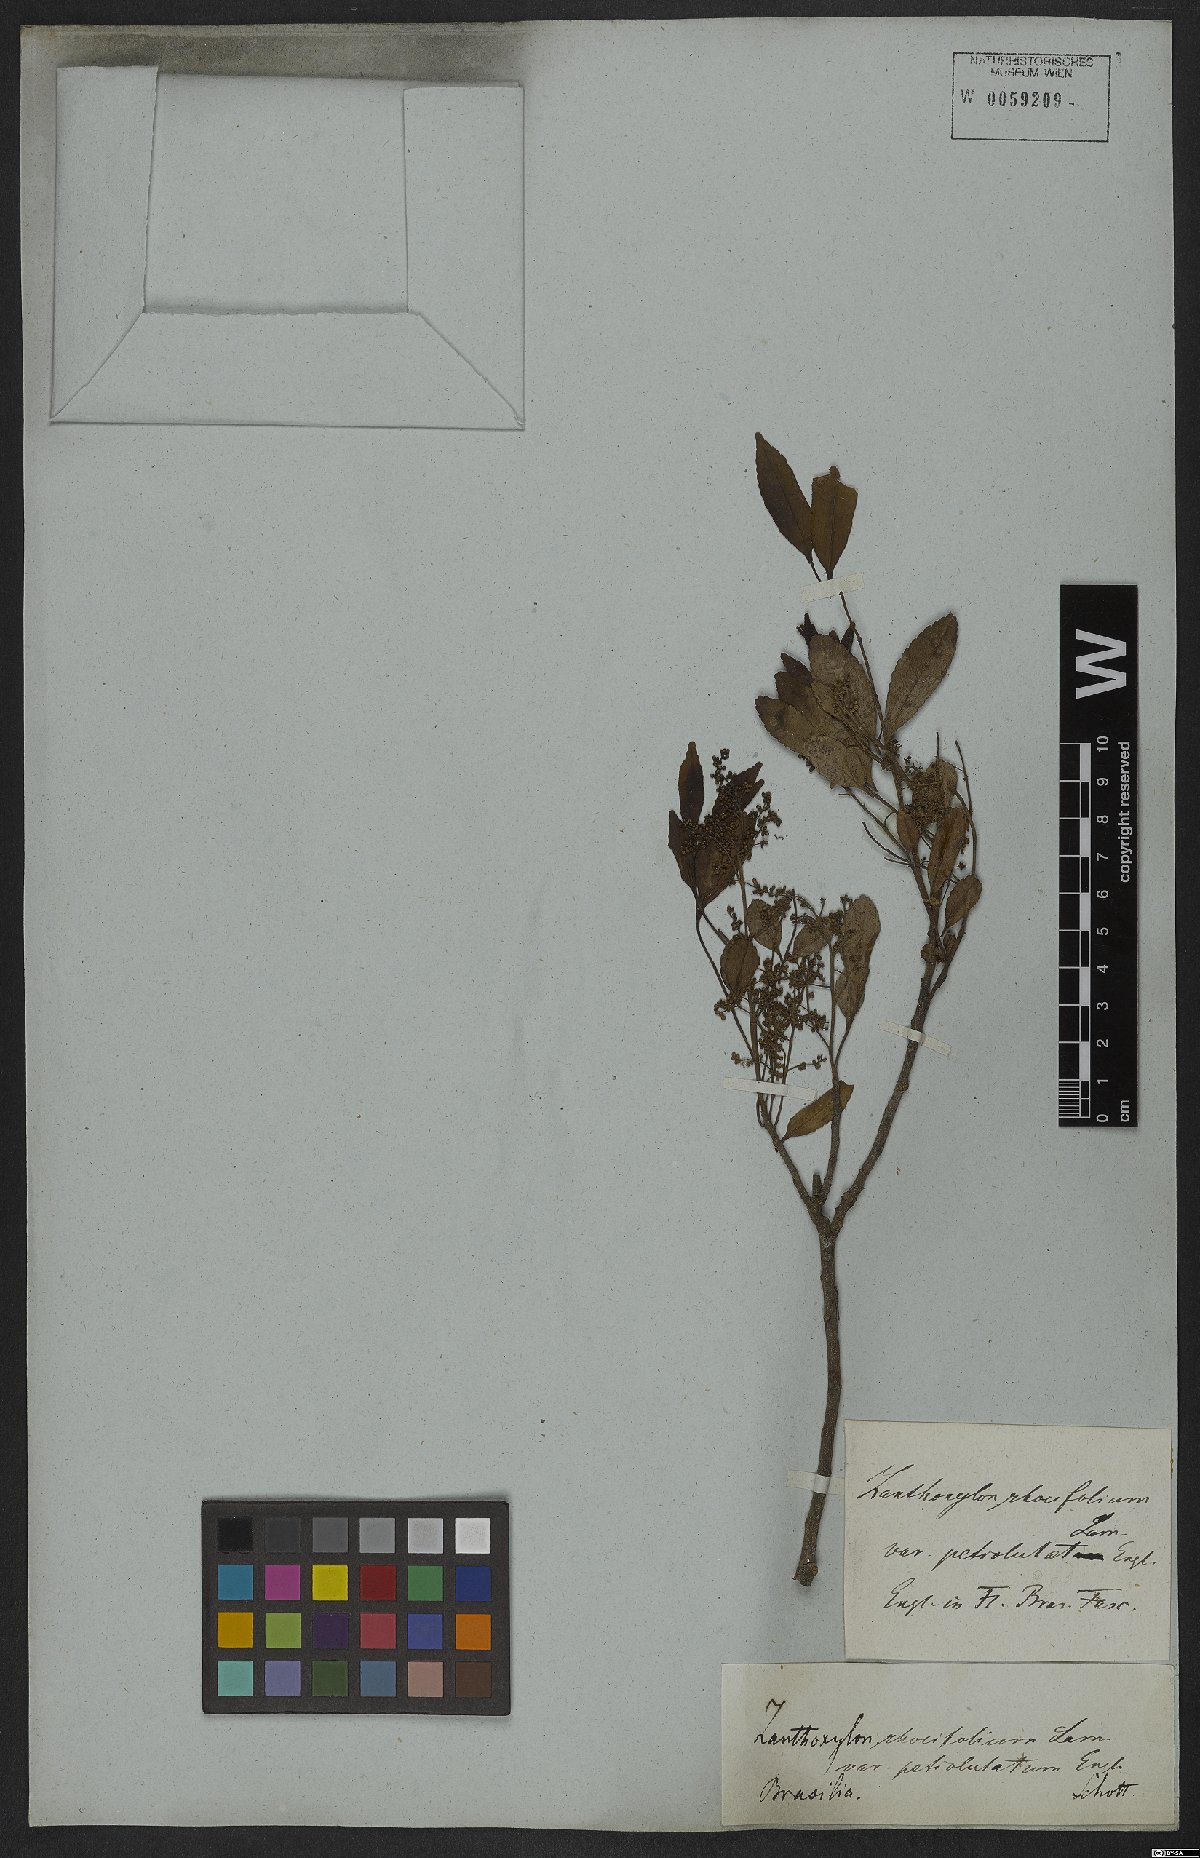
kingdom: Plantae
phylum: Tracheophyta
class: Magnoliopsida
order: Sapindales
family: Rutaceae
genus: Zanthoxylum
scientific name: Zanthoxylum rhoifolium
